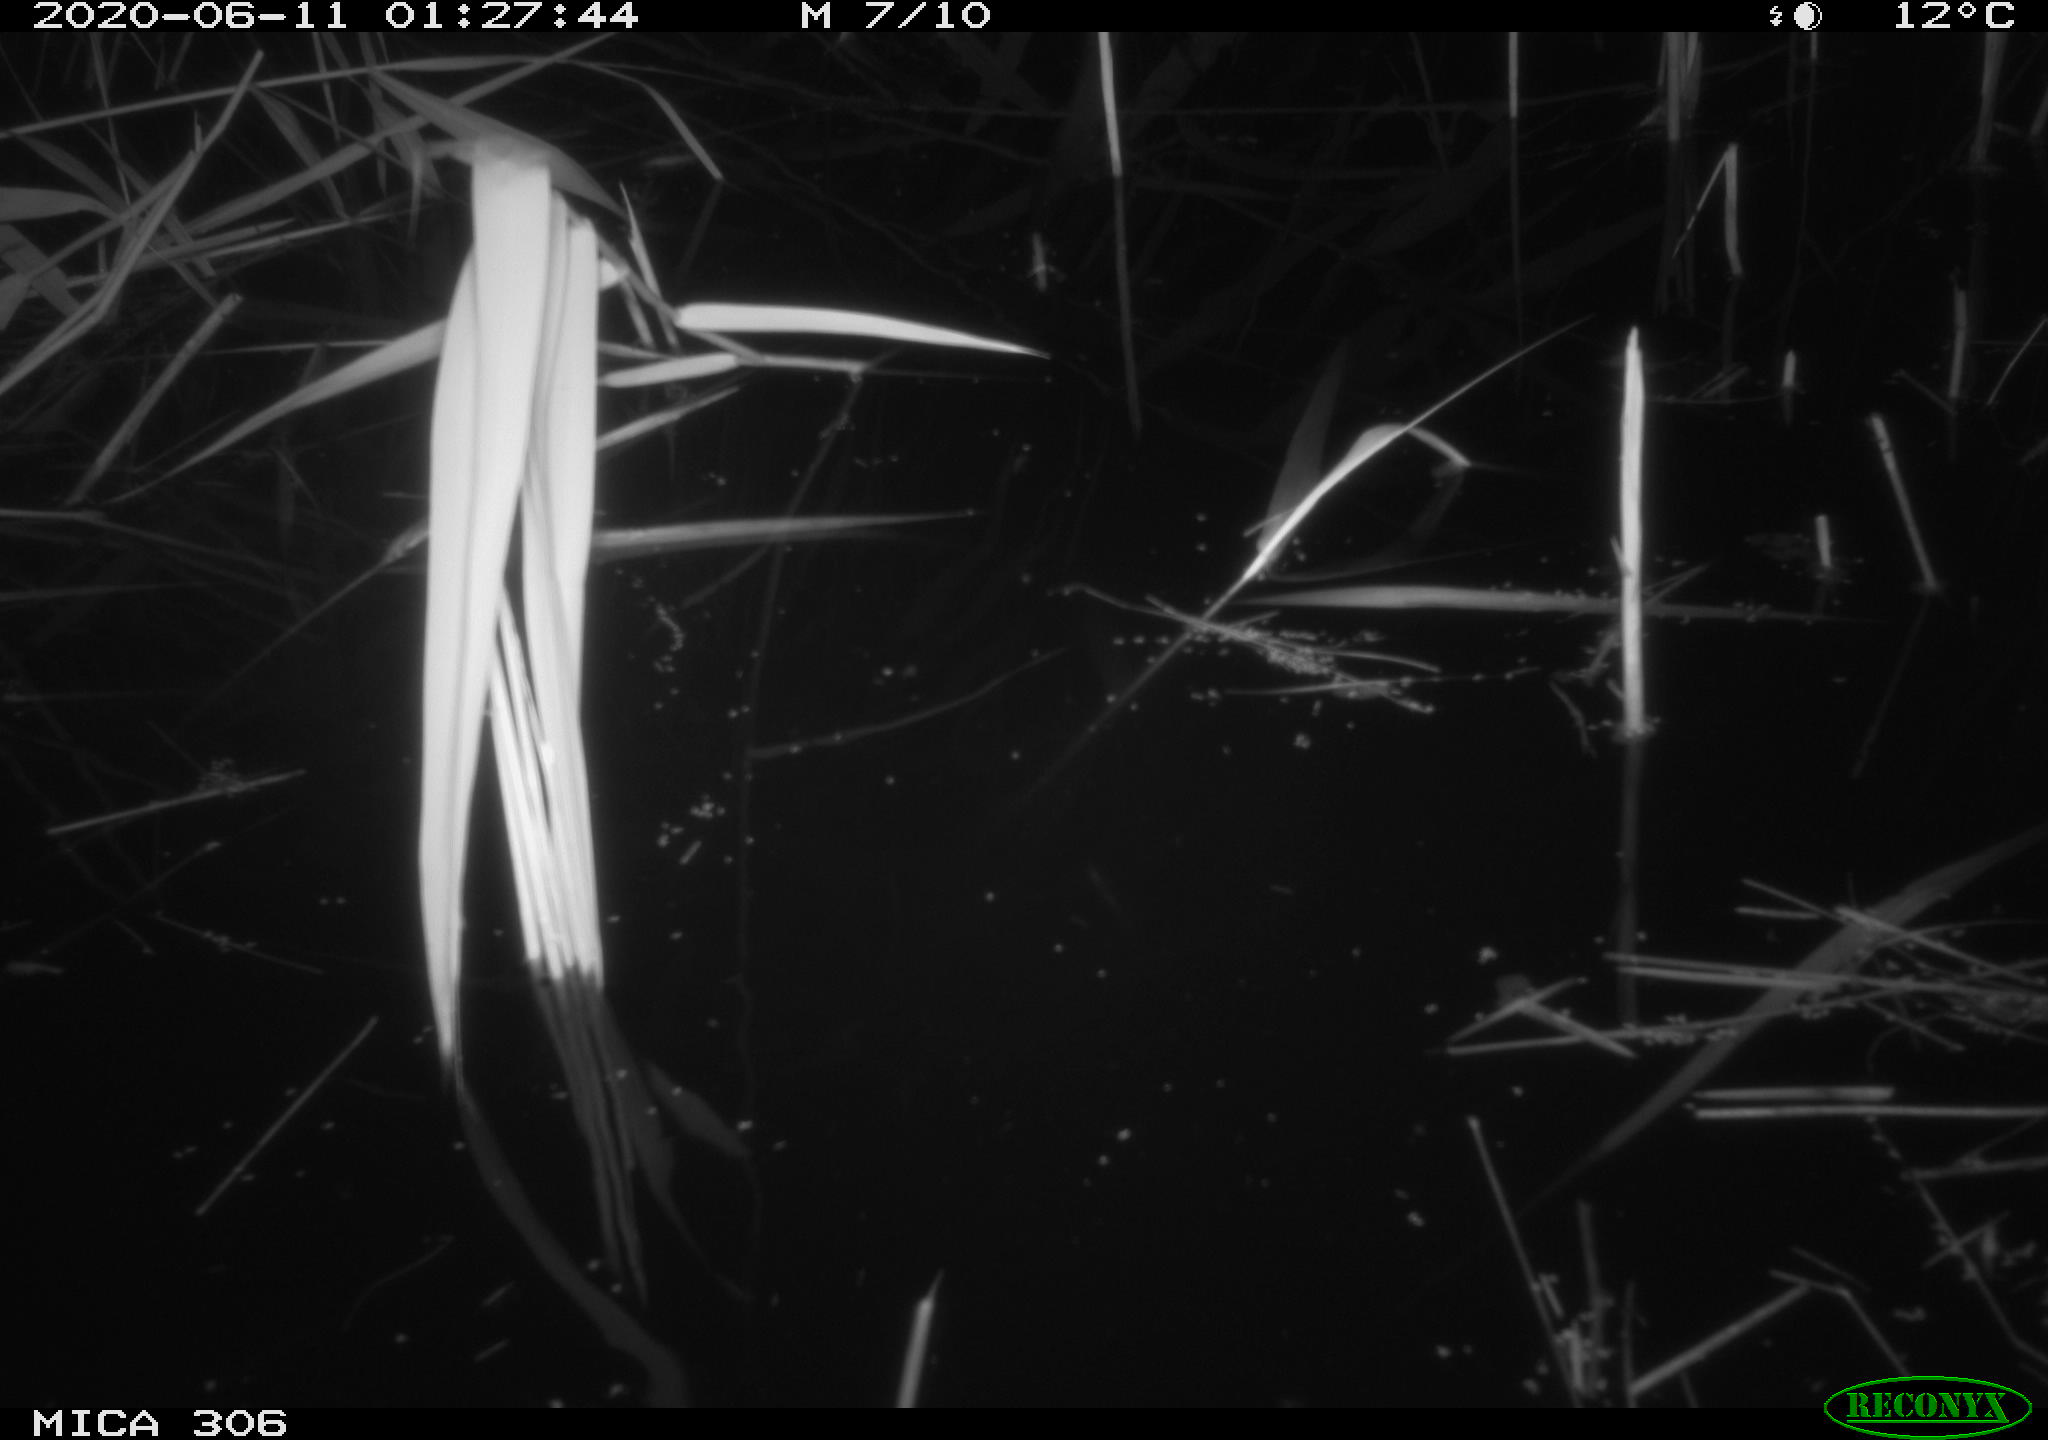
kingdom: Animalia
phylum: Chordata
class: Mammalia
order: Rodentia
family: Muridae
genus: Rattus
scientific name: Rattus norvegicus
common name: Brown rat
